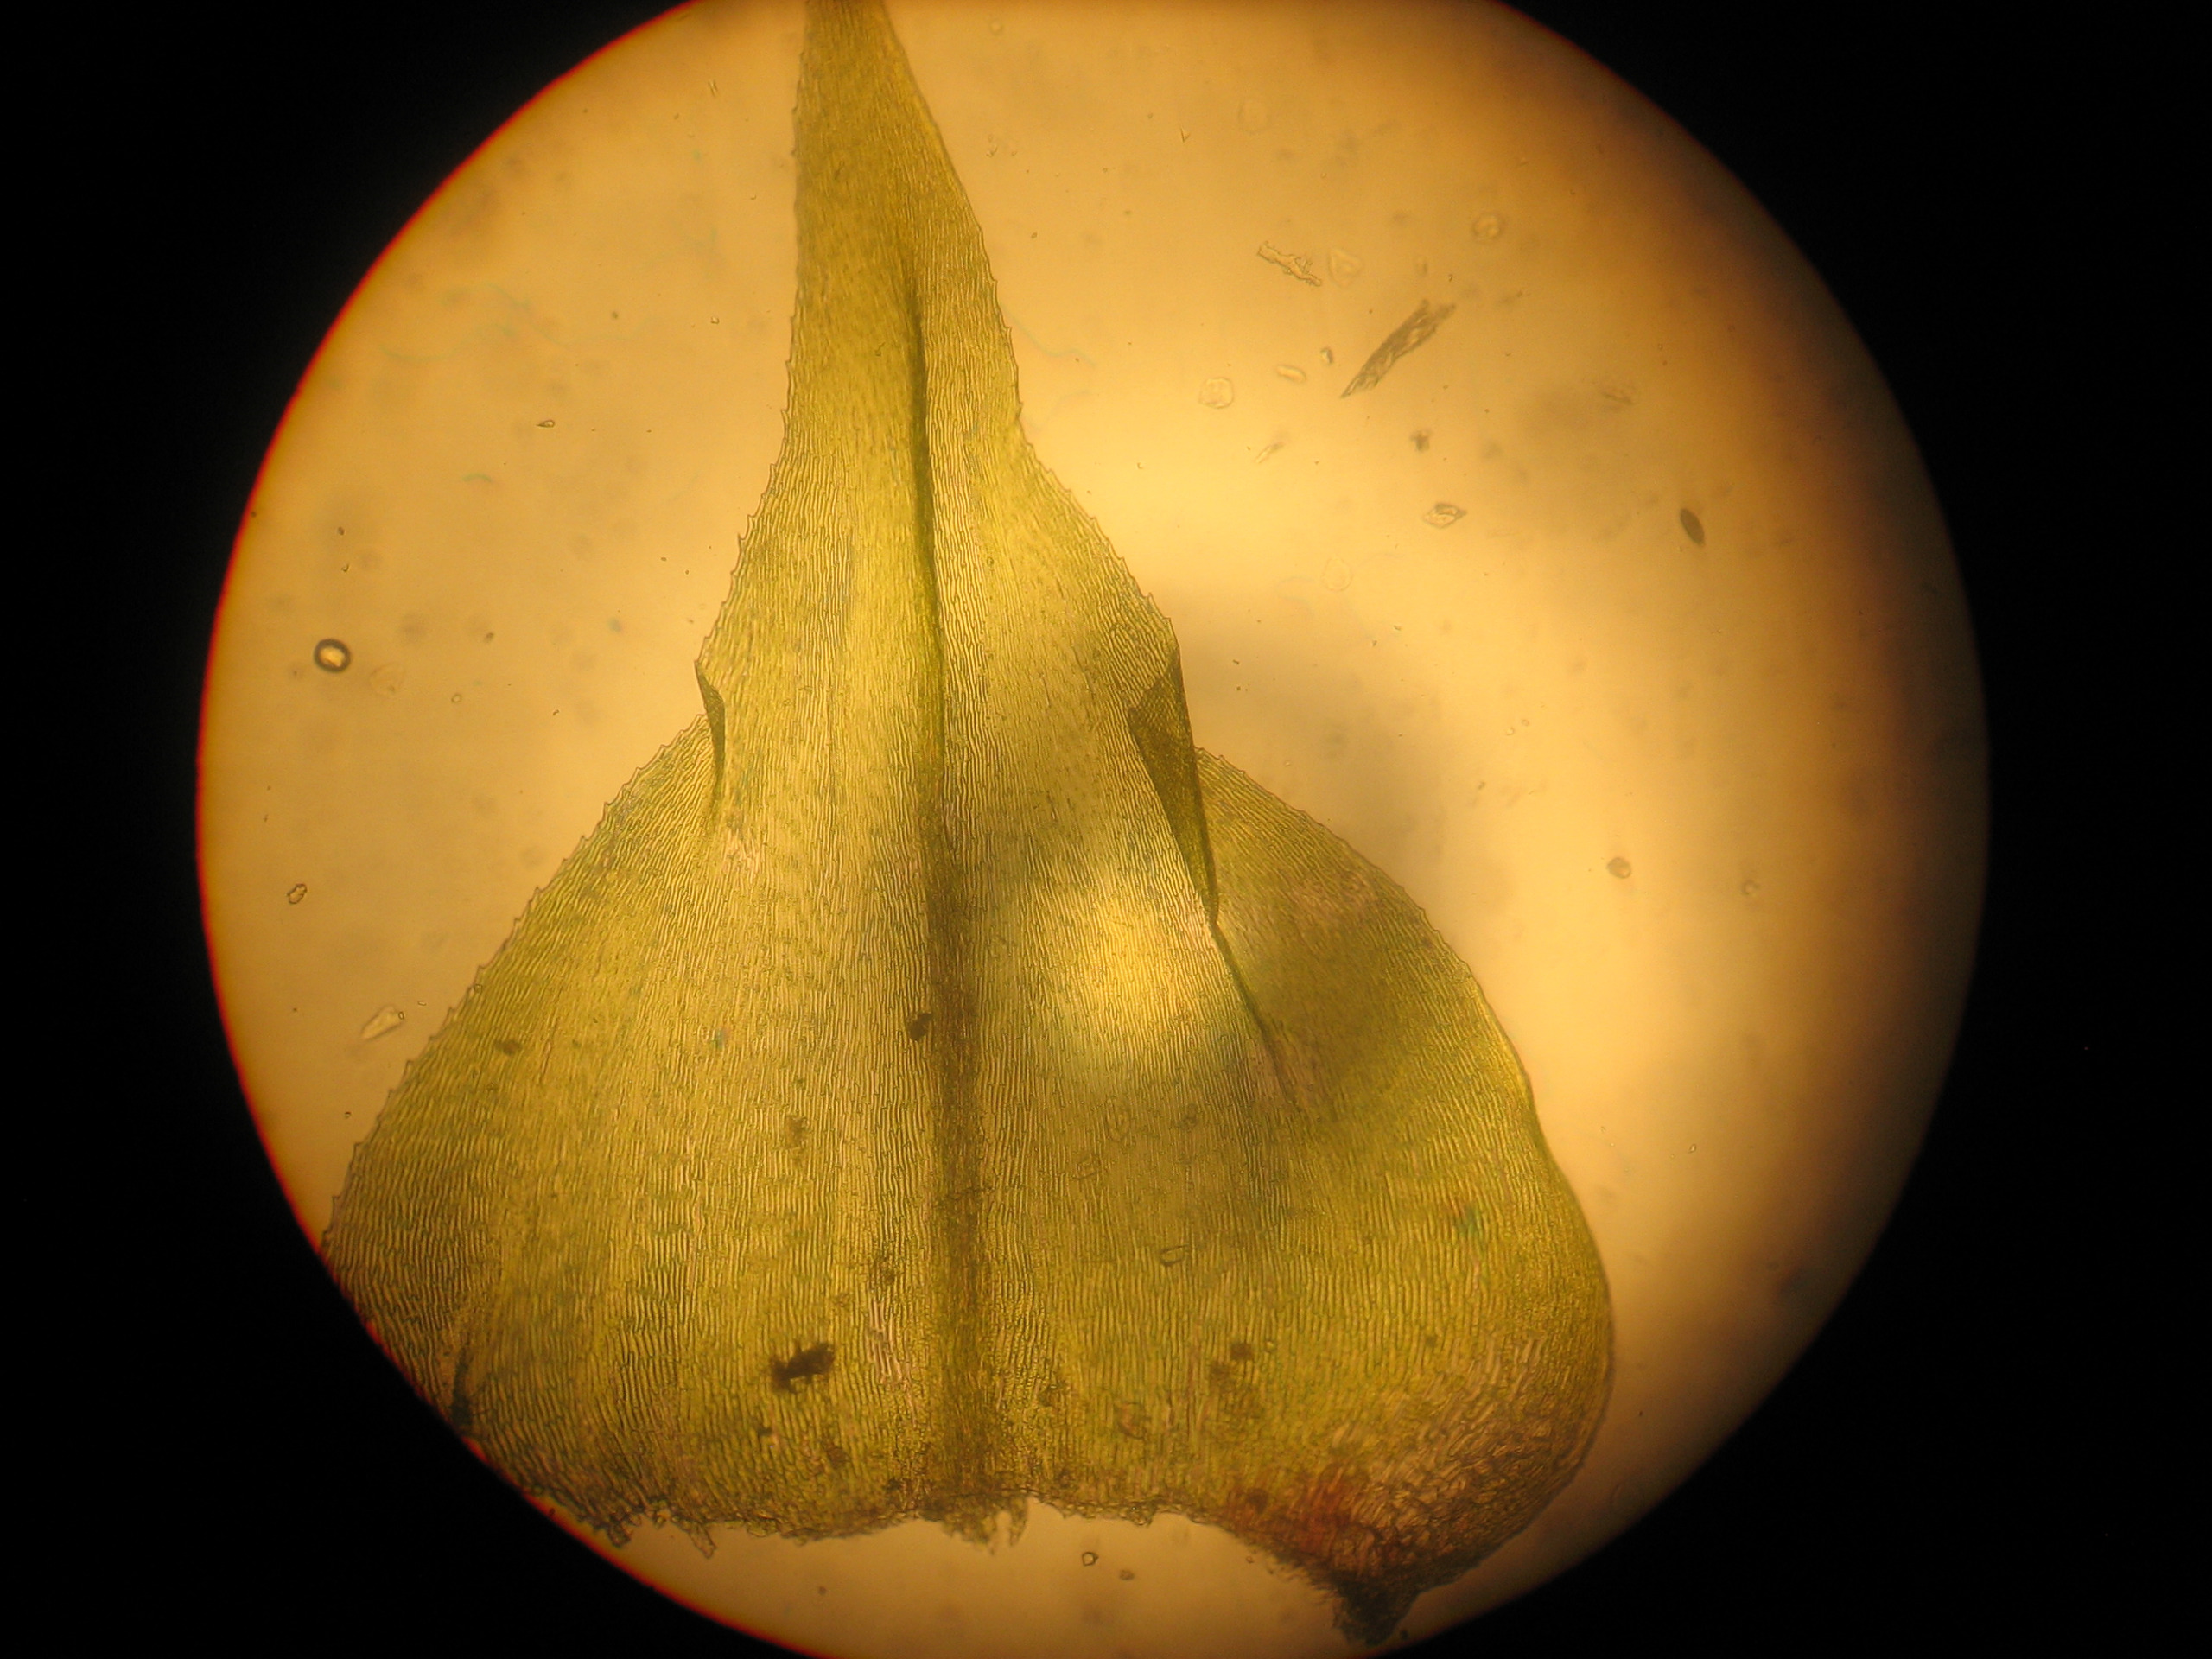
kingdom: Plantae
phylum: Bryophyta
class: Bryopsida
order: Hypnales
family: Brachytheciaceae
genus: Eurhynchium
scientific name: Eurhynchium striatum
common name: Stribet næbmos
